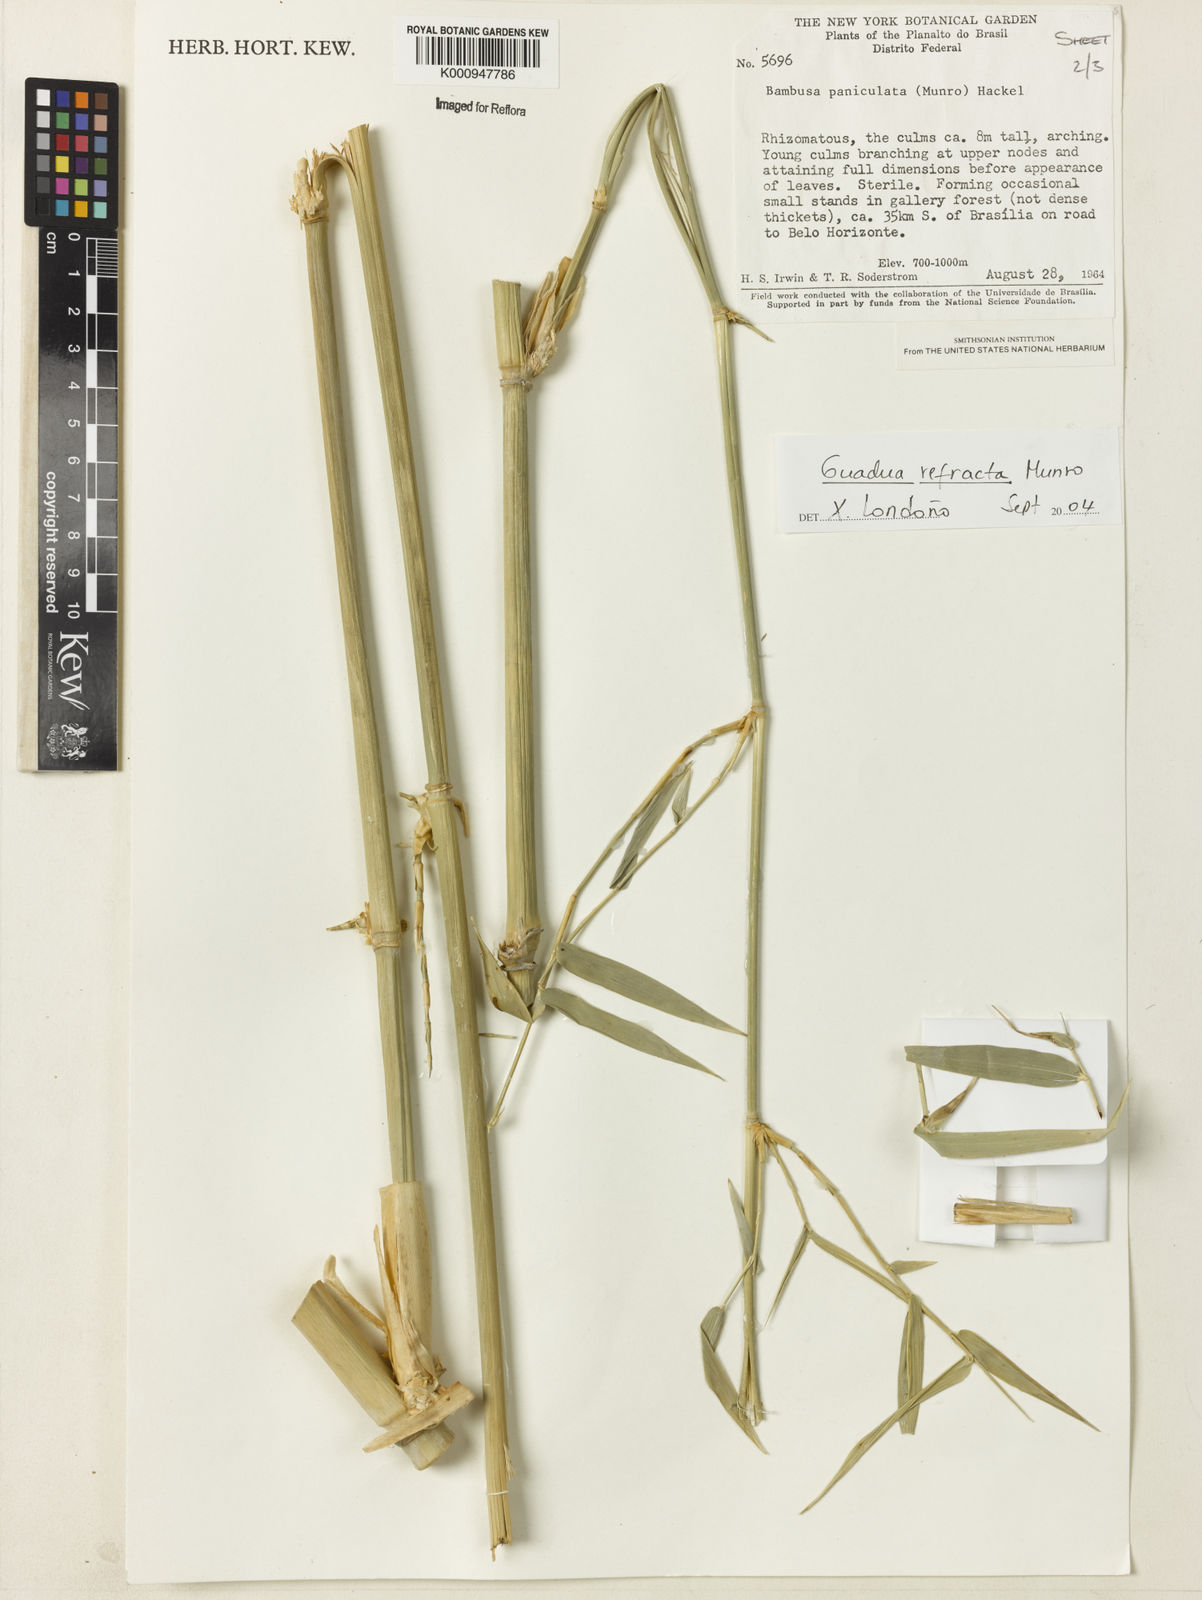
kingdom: Plantae
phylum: Tracheophyta
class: Liliopsida
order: Poales
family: Poaceae
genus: Guadua
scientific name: Guadua refracta
